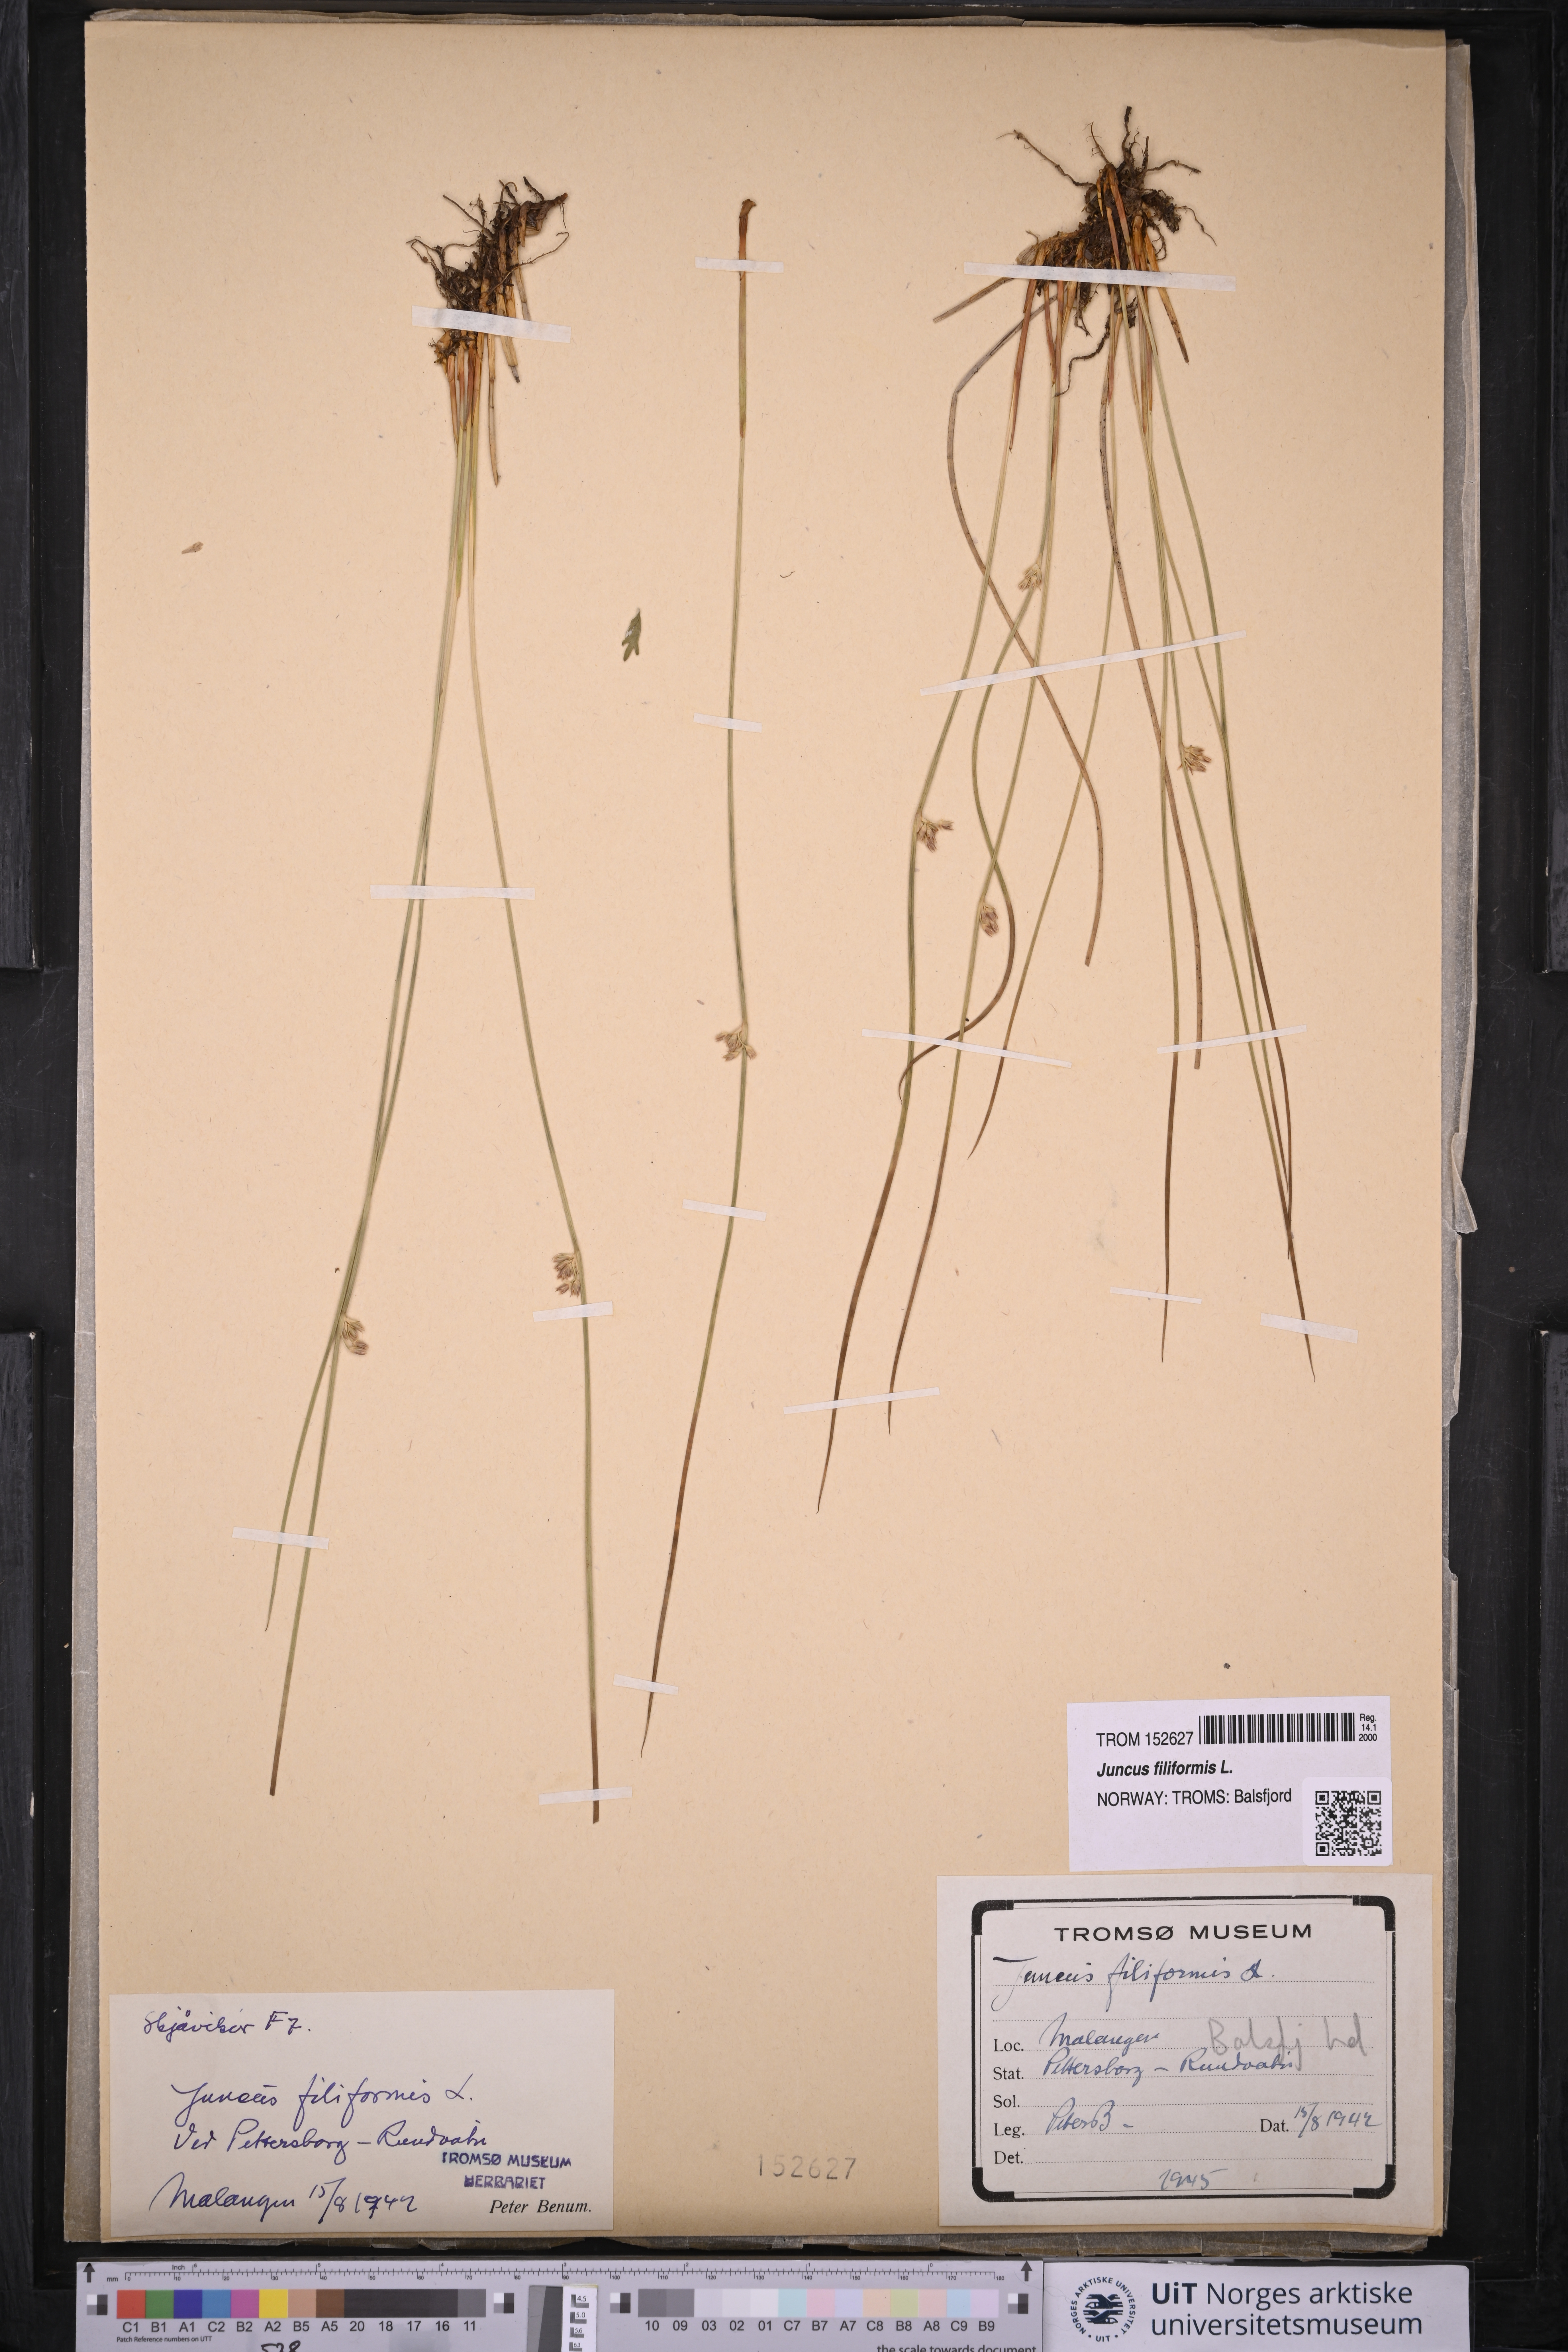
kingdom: Plantae
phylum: Tracheophyta
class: Liliopsida
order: Poales
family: Juncaceae
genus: Juncus
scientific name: Juncus filiformis
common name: Thread rush
